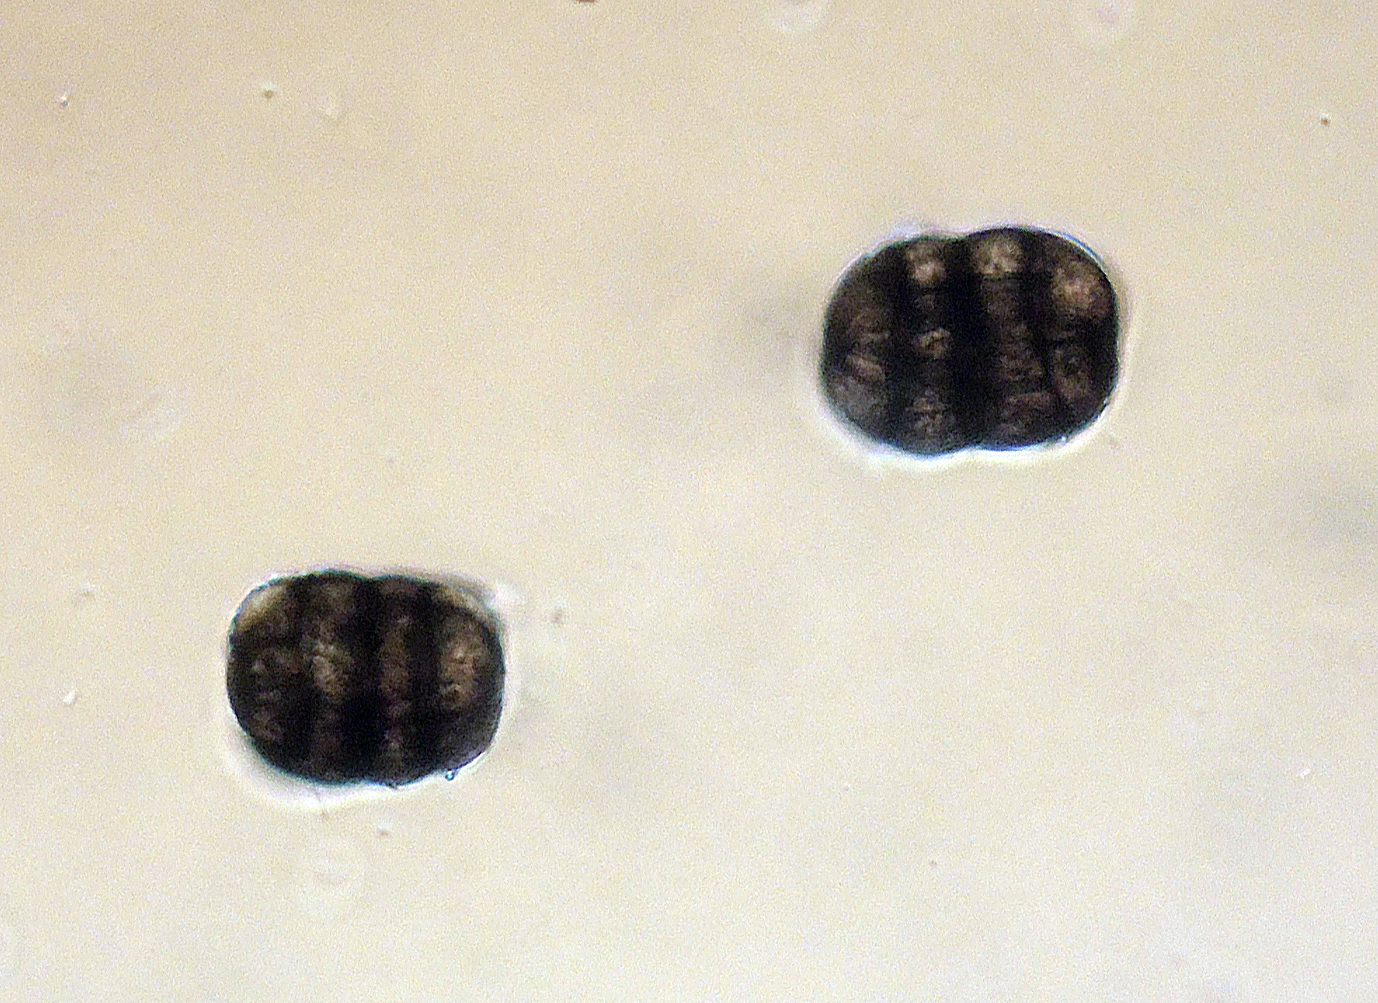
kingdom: Fungi
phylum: Ascomycota
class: Dothideomycetes
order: Pleosporales
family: Pleosporaceae
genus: Stemphylium
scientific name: Stemphylium sarciniforme
